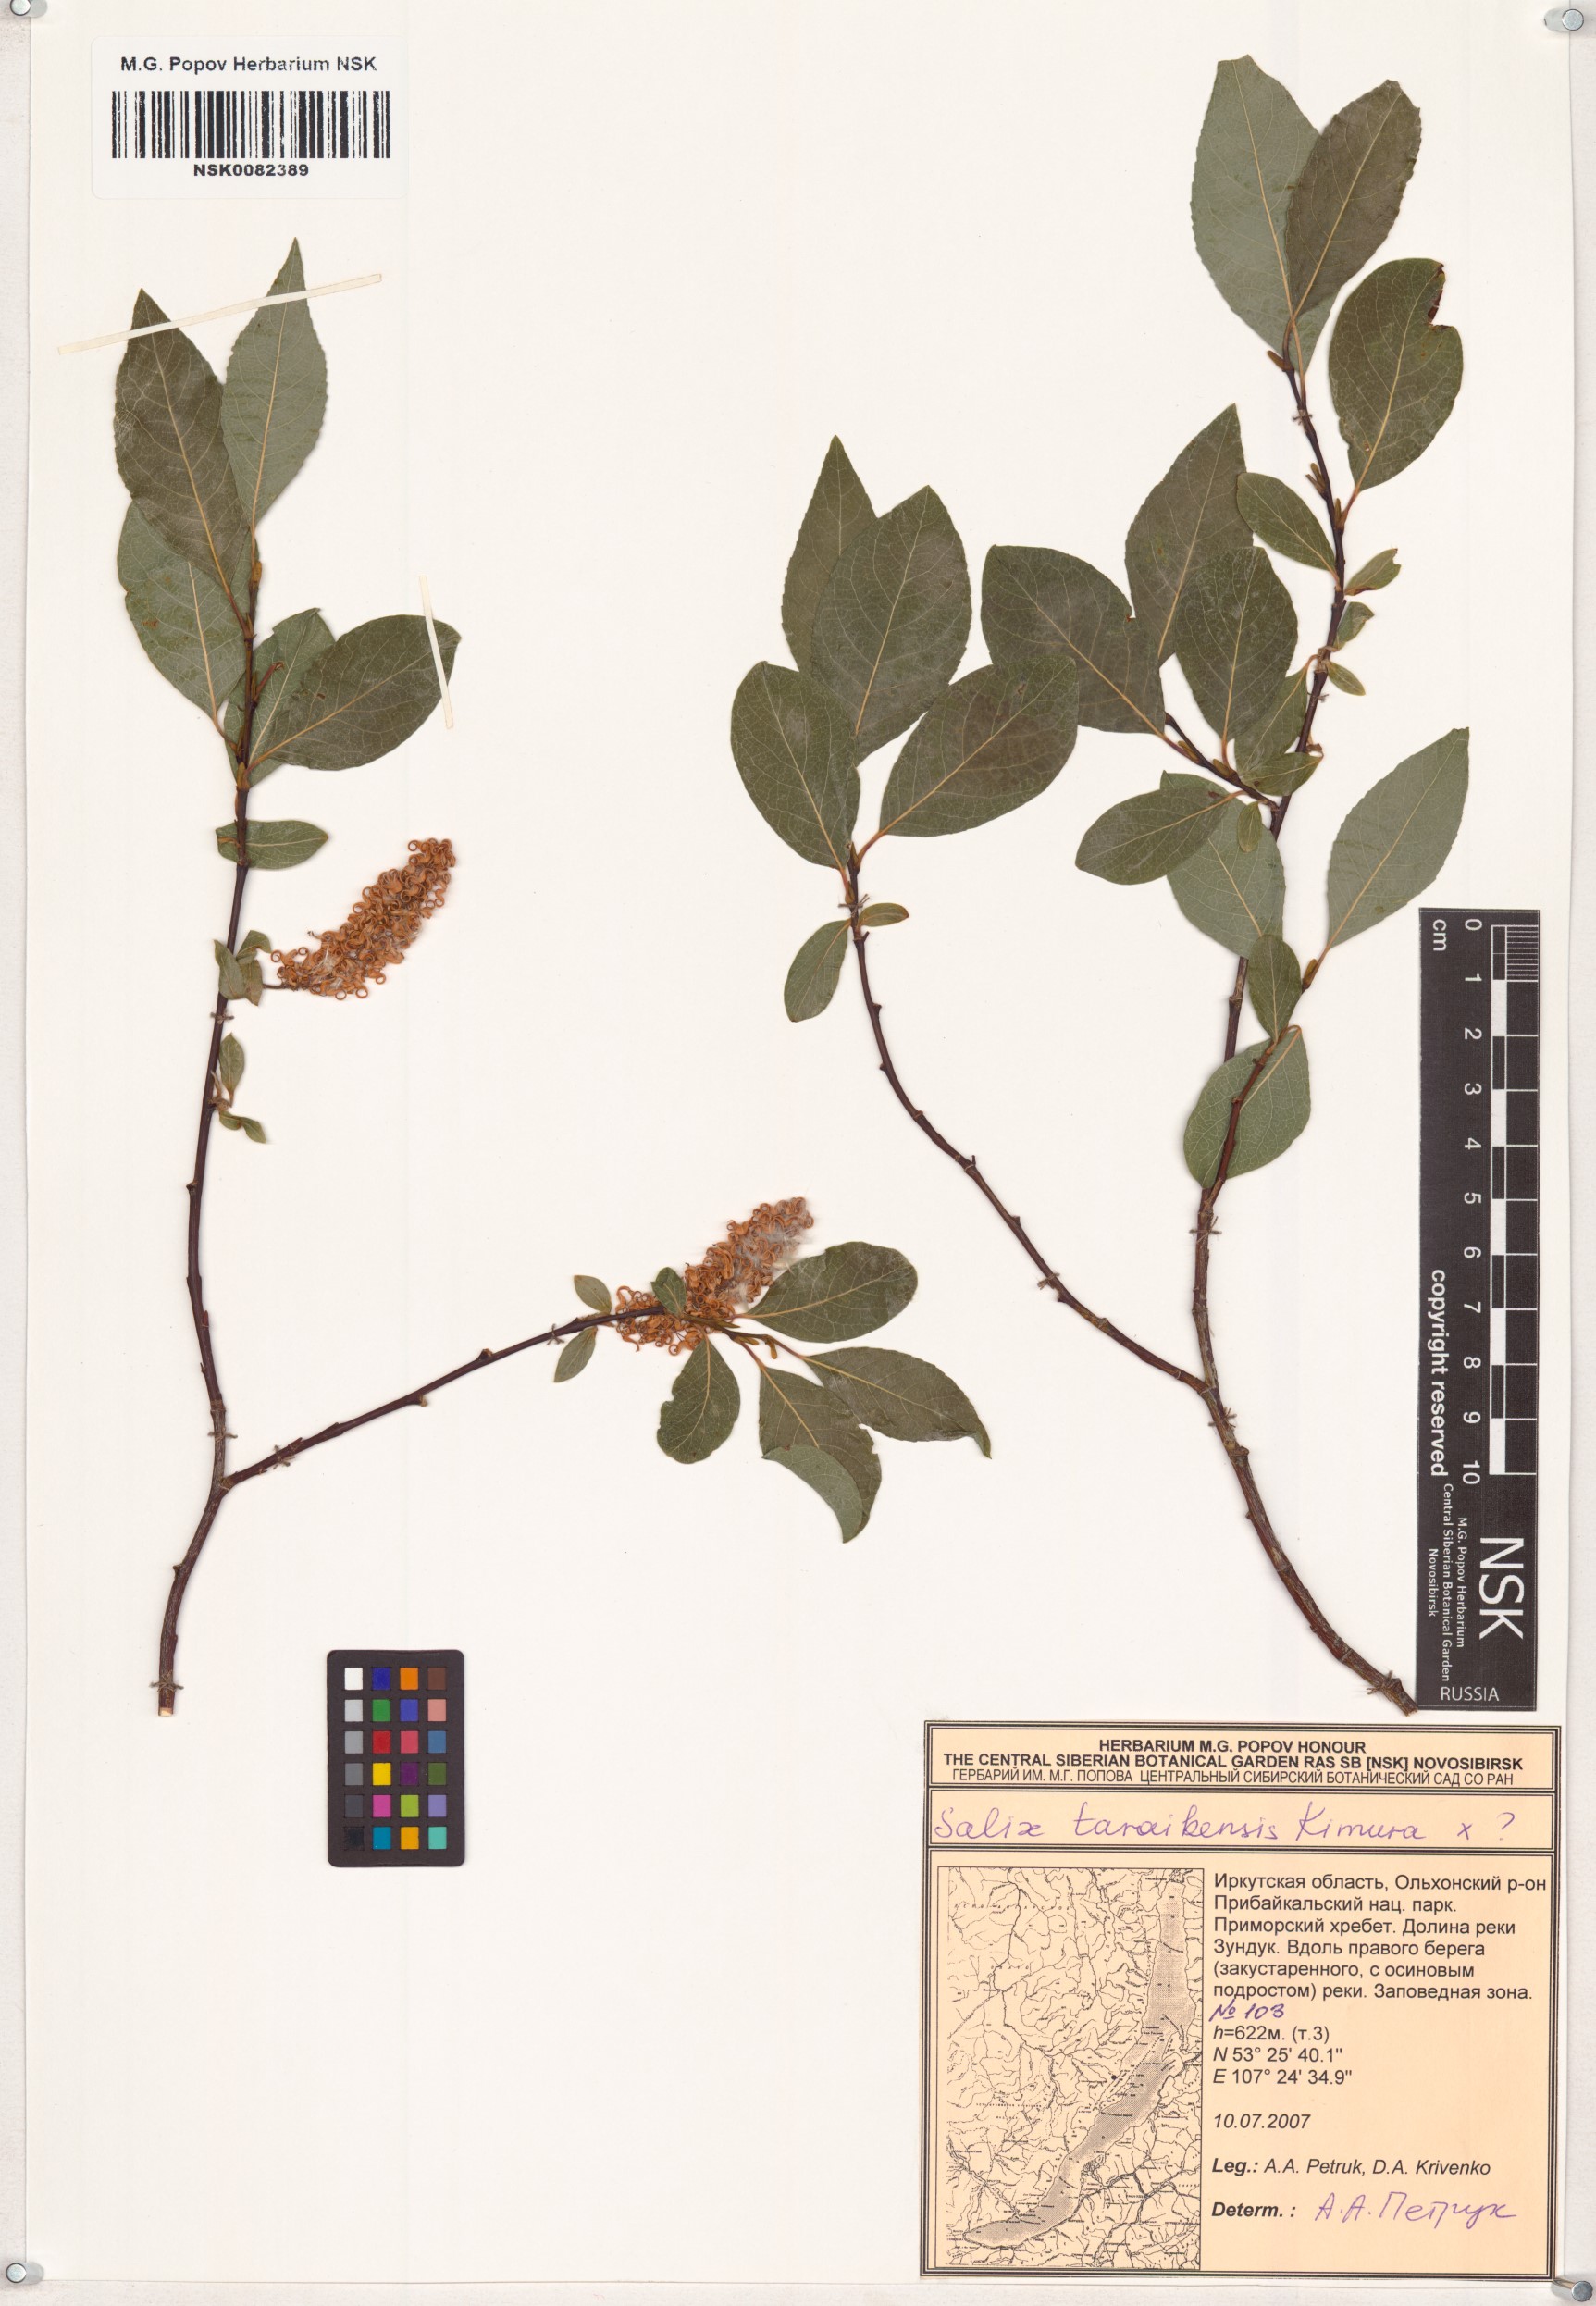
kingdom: Plantae
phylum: Tracheophyta
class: Magnoliopsida
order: Malpighiales
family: Salicaceae
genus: Salix
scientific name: Salix taraikensis
